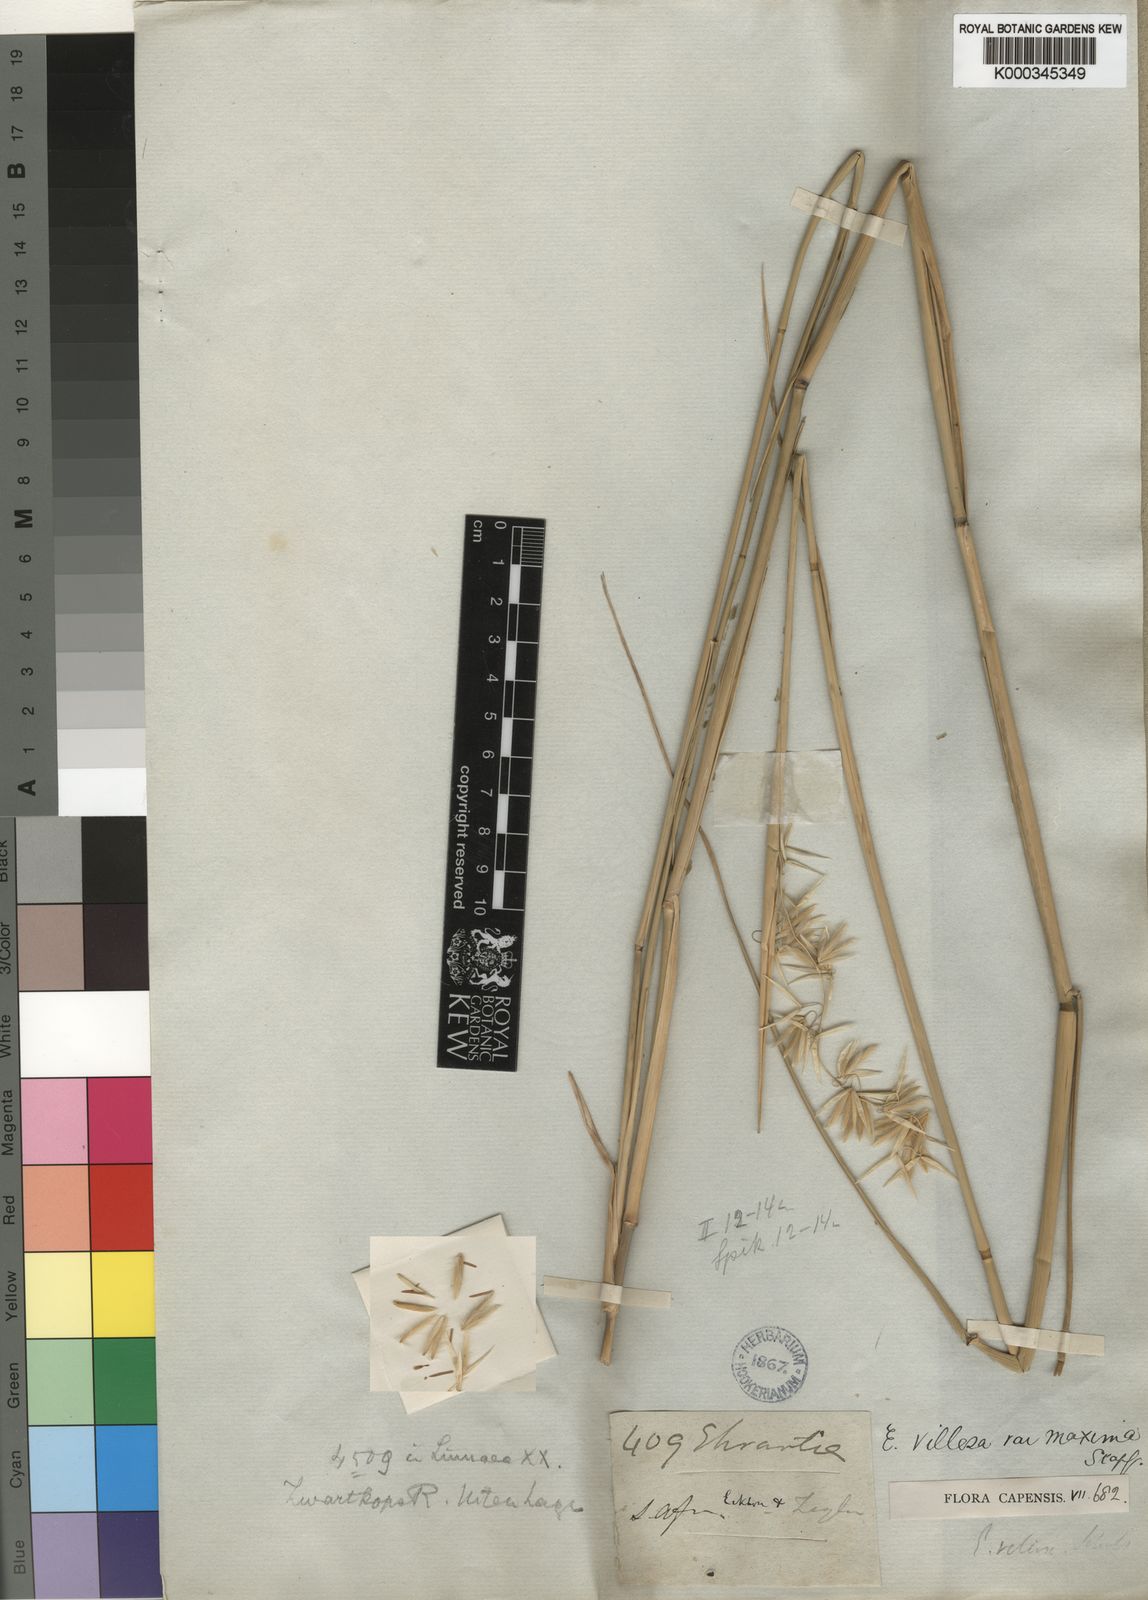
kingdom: Plantae
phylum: Tracheophyta
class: Liliopsida
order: Poales
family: Poaceae
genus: Ehrharta
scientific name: Ehrharta villosa
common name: Pyp grass
